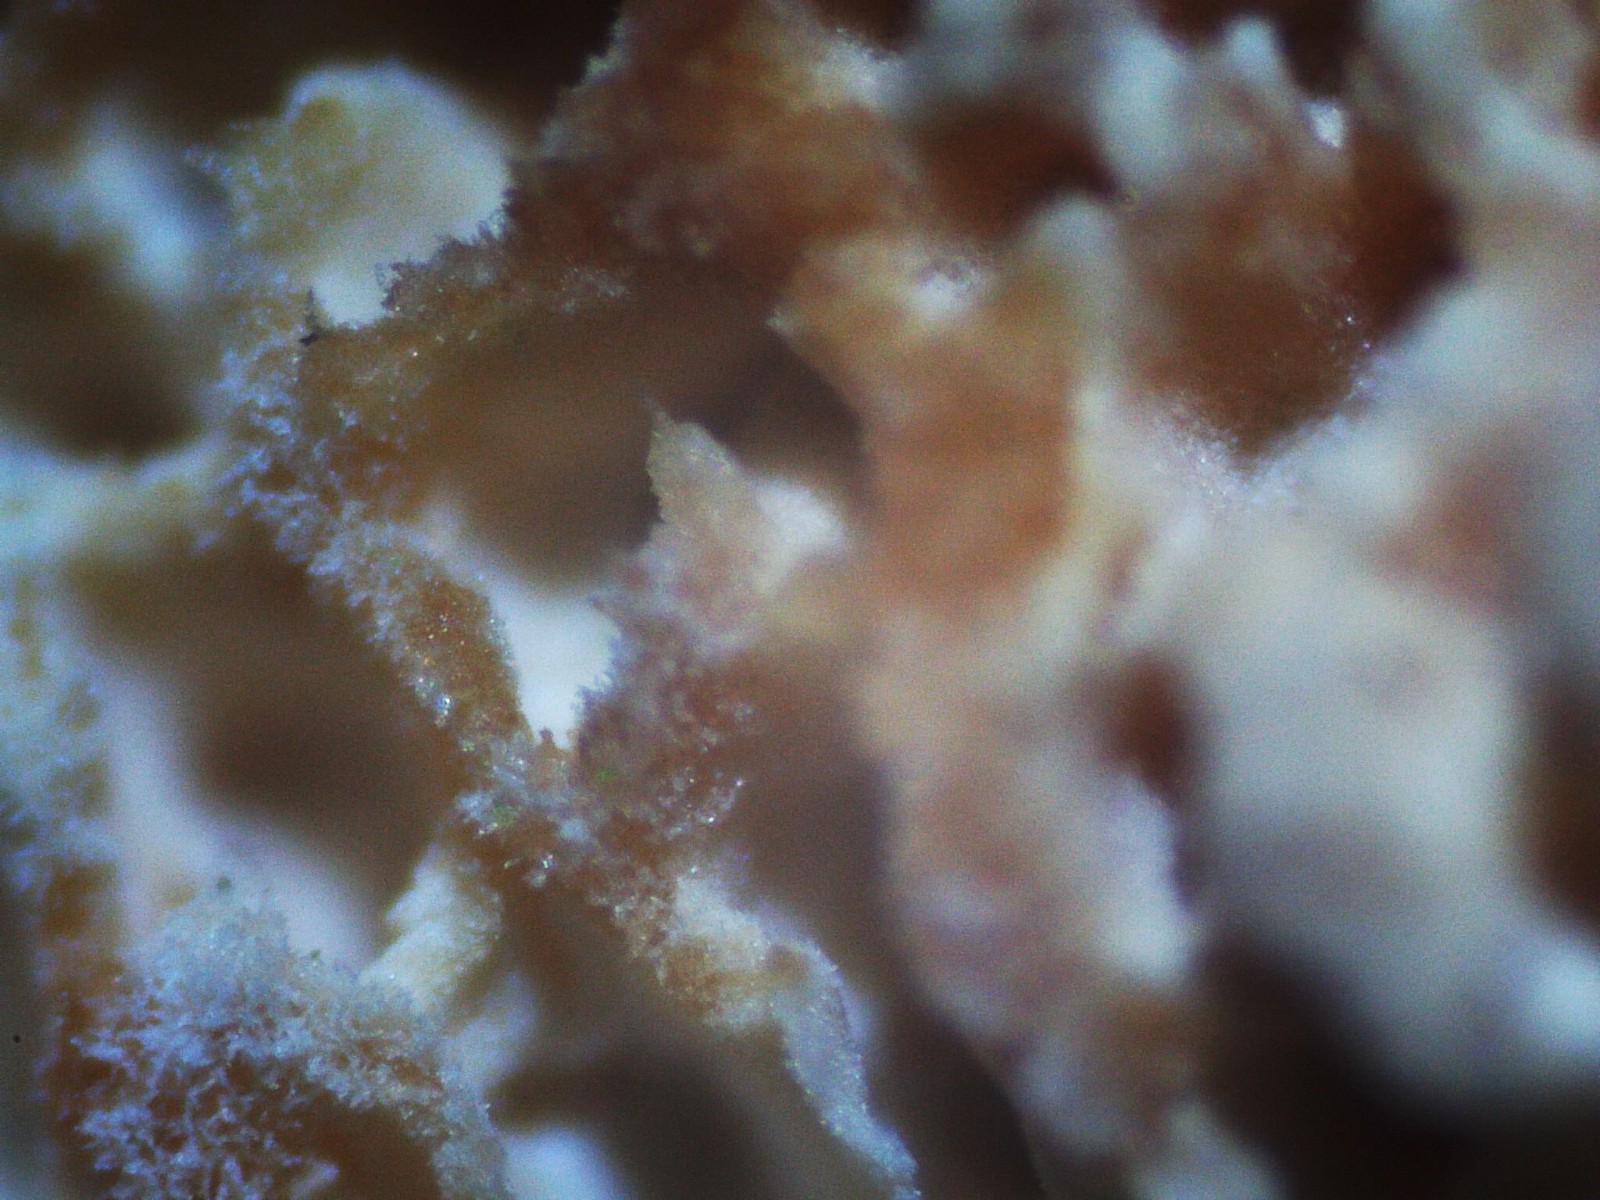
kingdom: Fungi
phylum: Basidiomycota
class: Agaricomycetes
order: Polyporales
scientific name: Polyporales
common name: poresvampordenen
